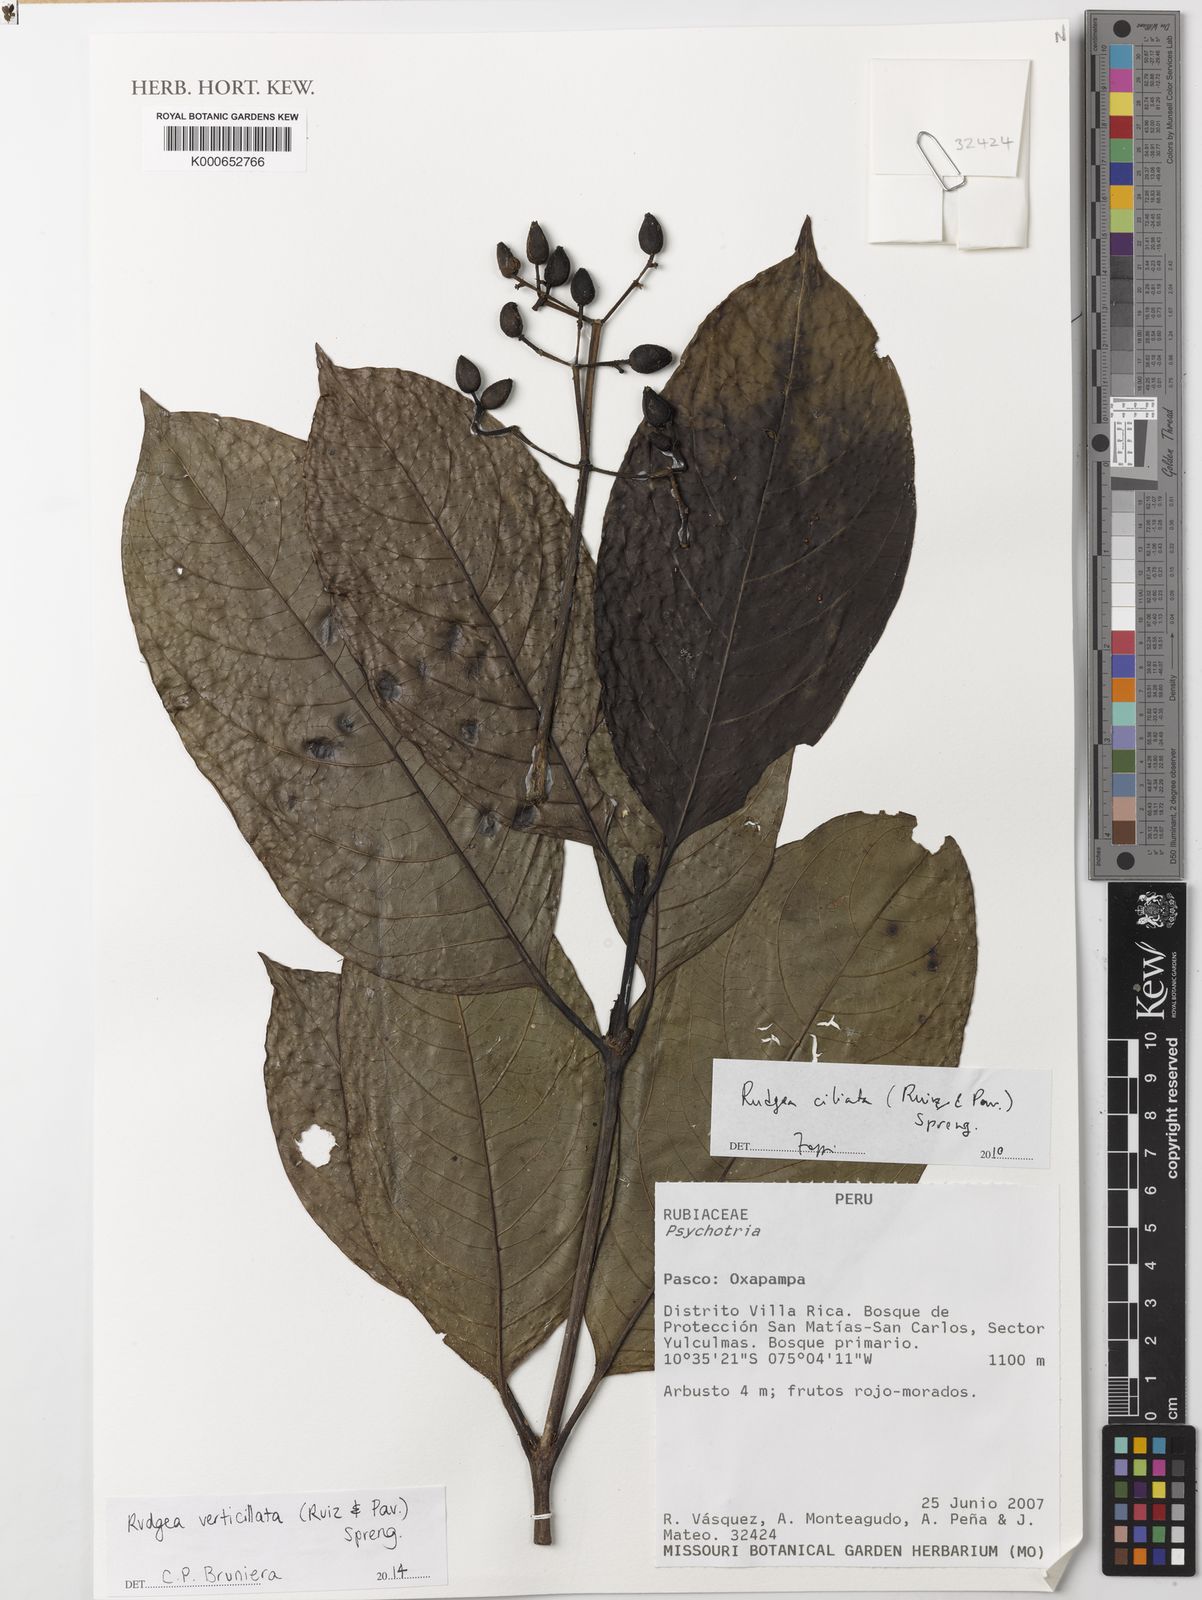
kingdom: Plantae
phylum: Tracheophyta
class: Magnoliopsida
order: Gentianales
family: Rubiaceae
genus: Rudgea
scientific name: Rudgea verticillata
